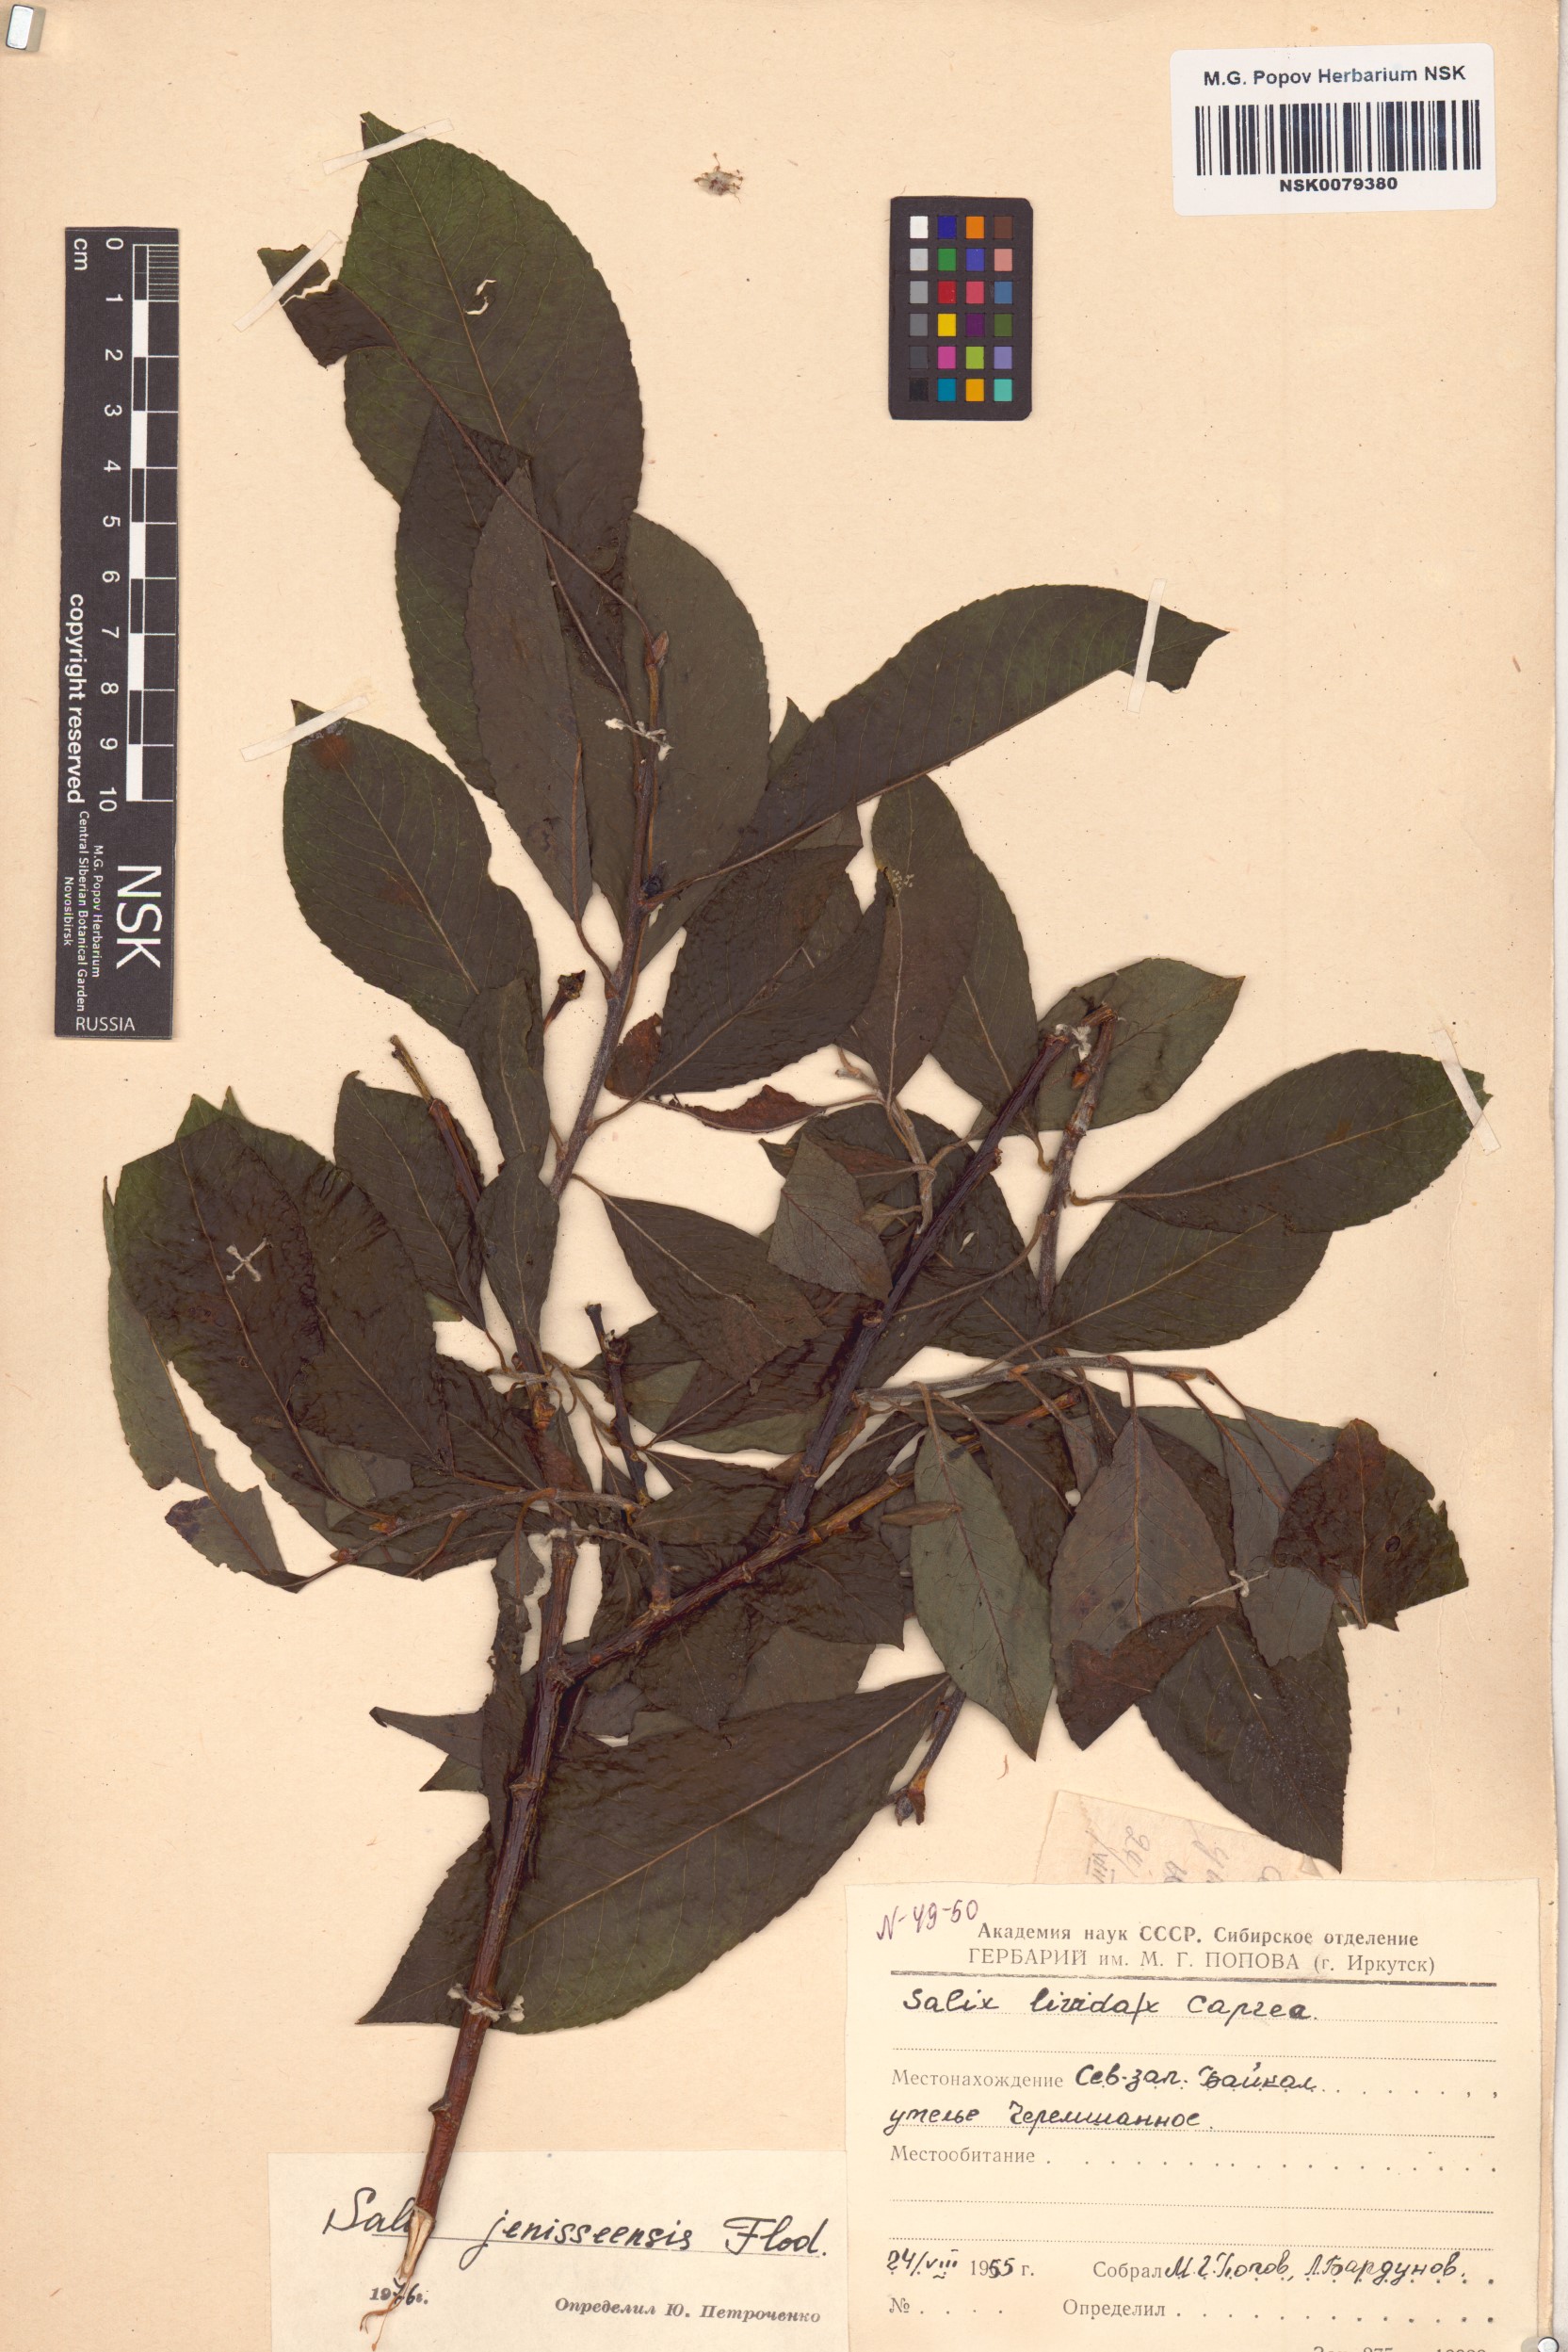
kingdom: Plantae
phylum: Tracheophyta
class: Magnoliopsida
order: Malpighiales
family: Salicaceae
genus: Salix
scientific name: Salix jenisseensis
